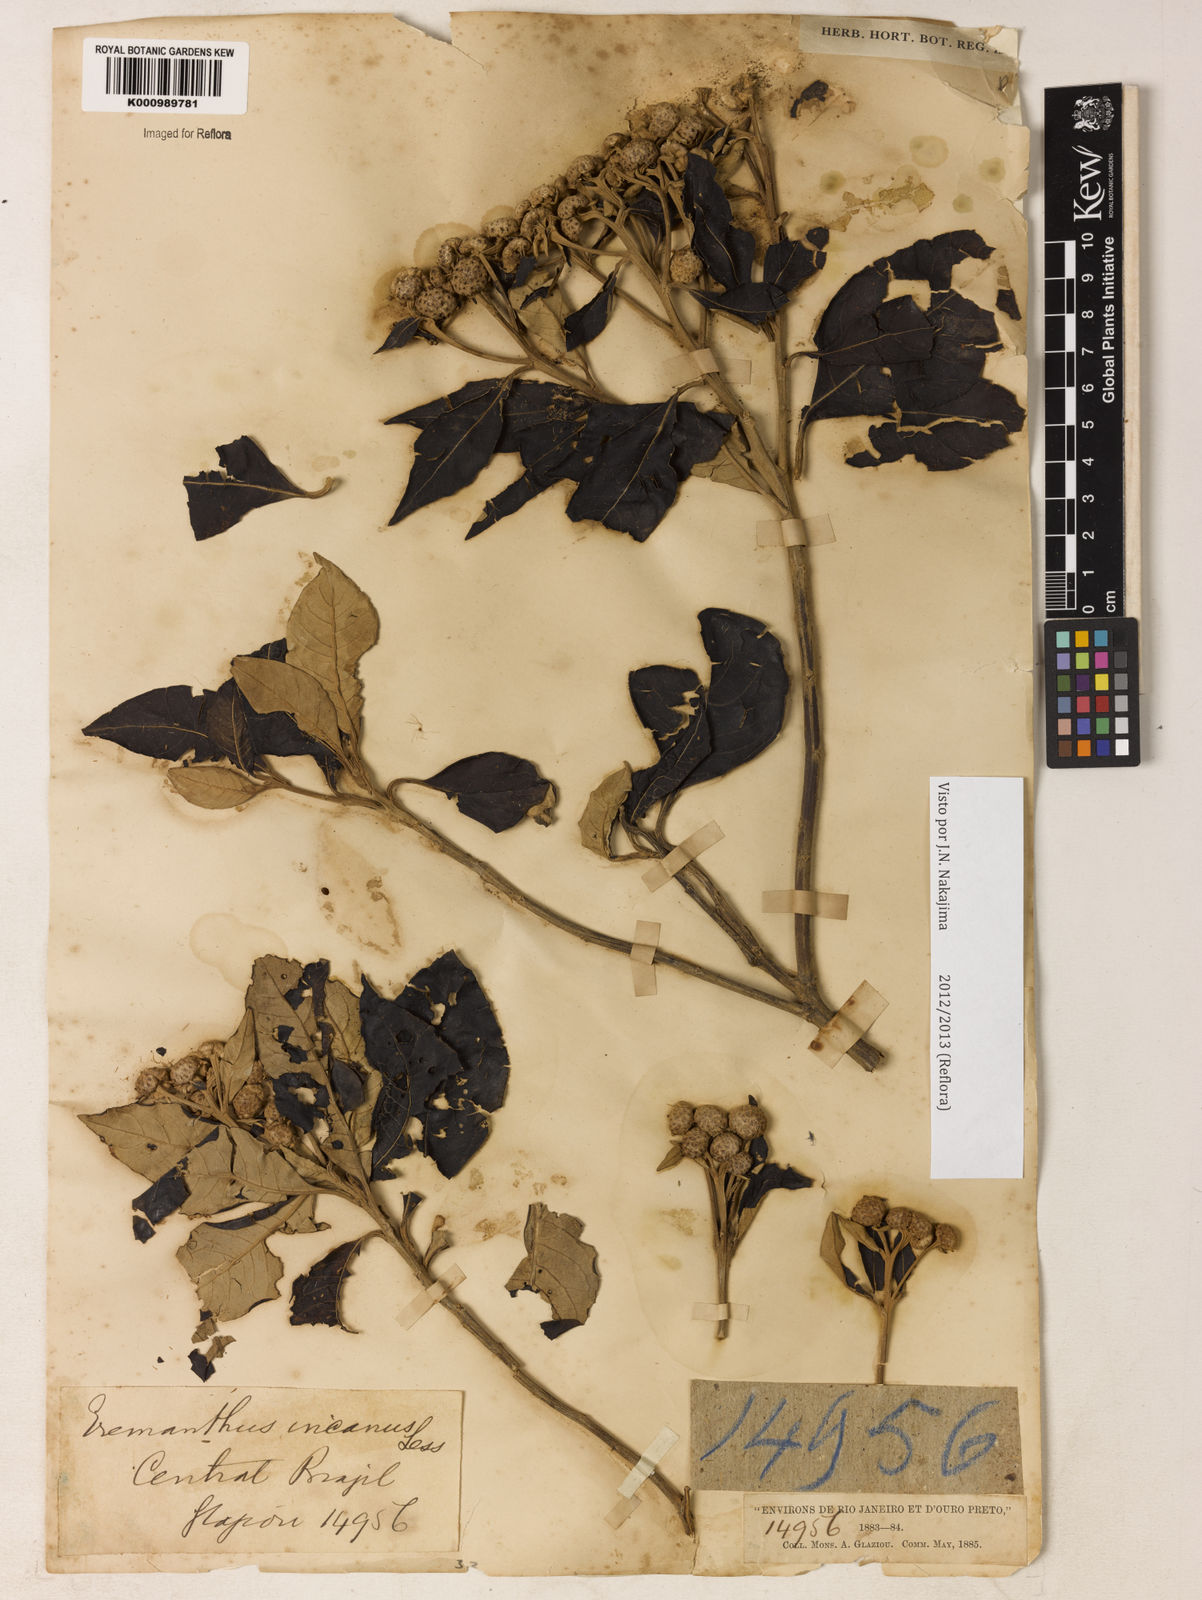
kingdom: Plantae
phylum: Tracheophyta
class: Magnoliopsida
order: Asterales
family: Asteraceae
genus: Eremanthus
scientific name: Eremanthus incanus
